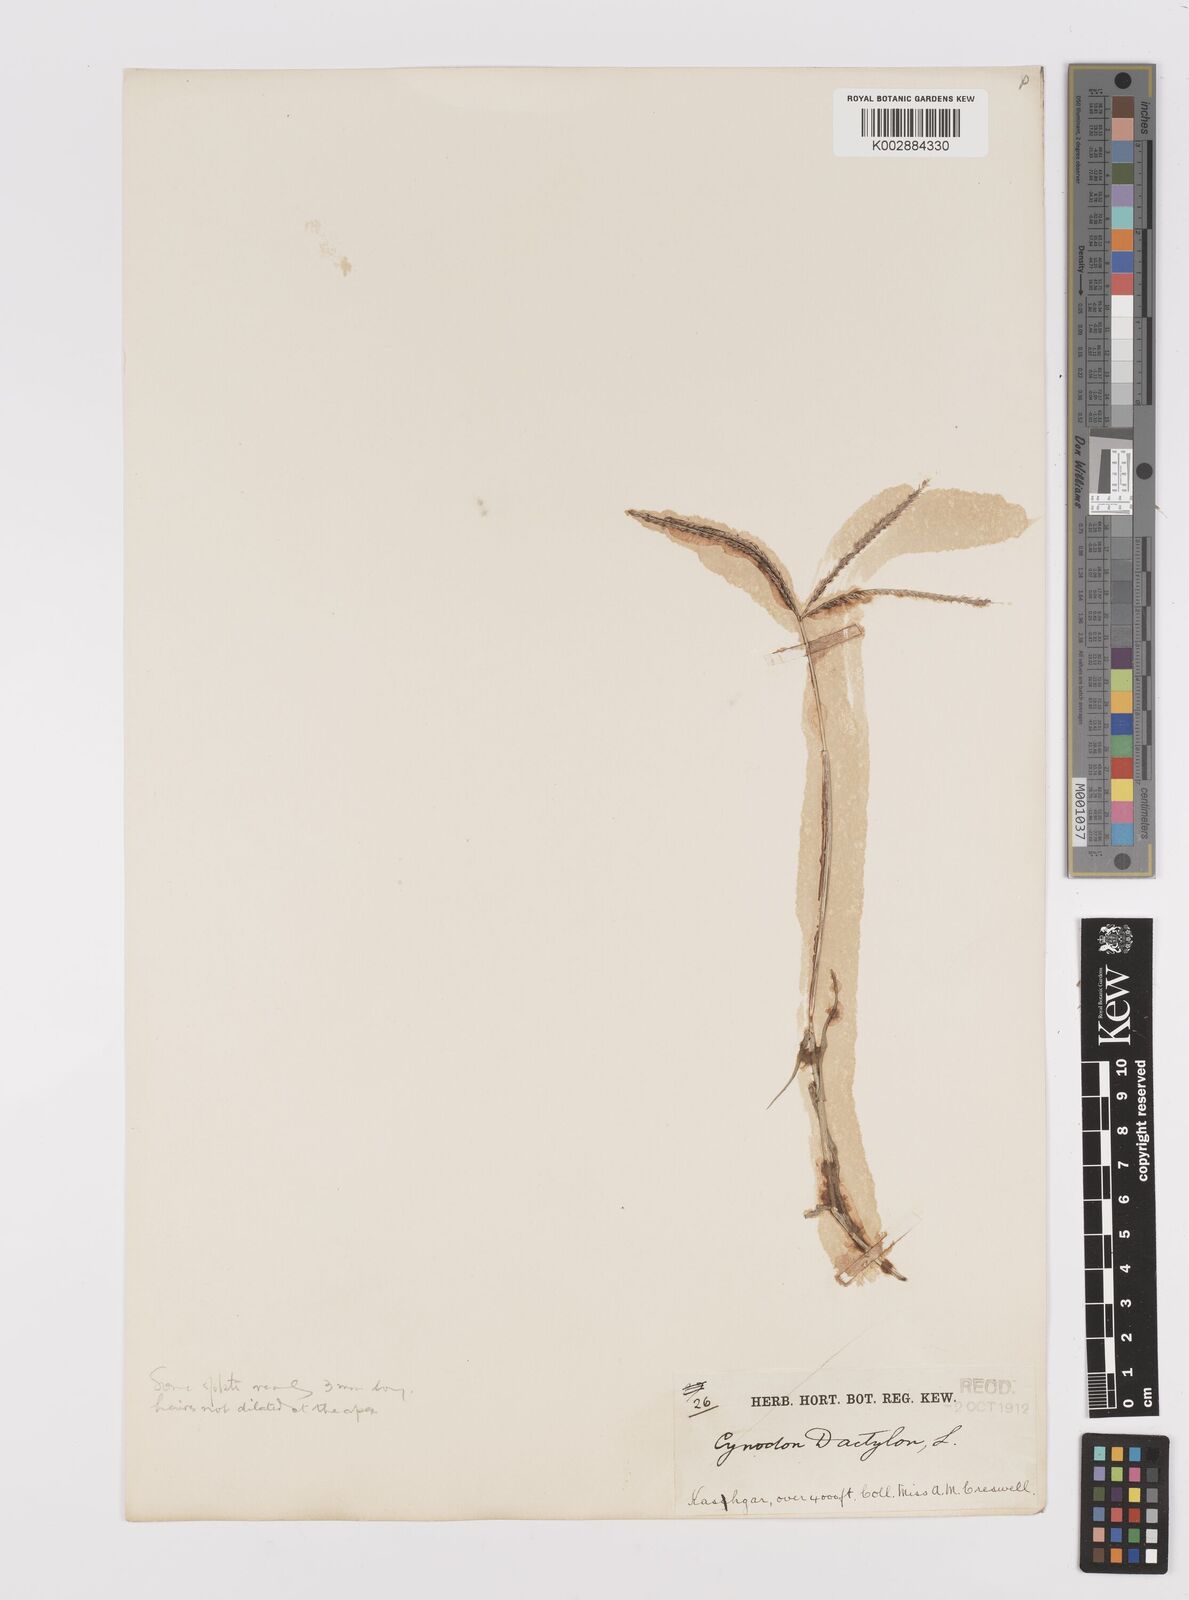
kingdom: Plantae
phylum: Tracheophyta
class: Liliopsida
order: Poales
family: Poaceae
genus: Cynodon
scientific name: Cynodon dactylon
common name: Bermuda grass
